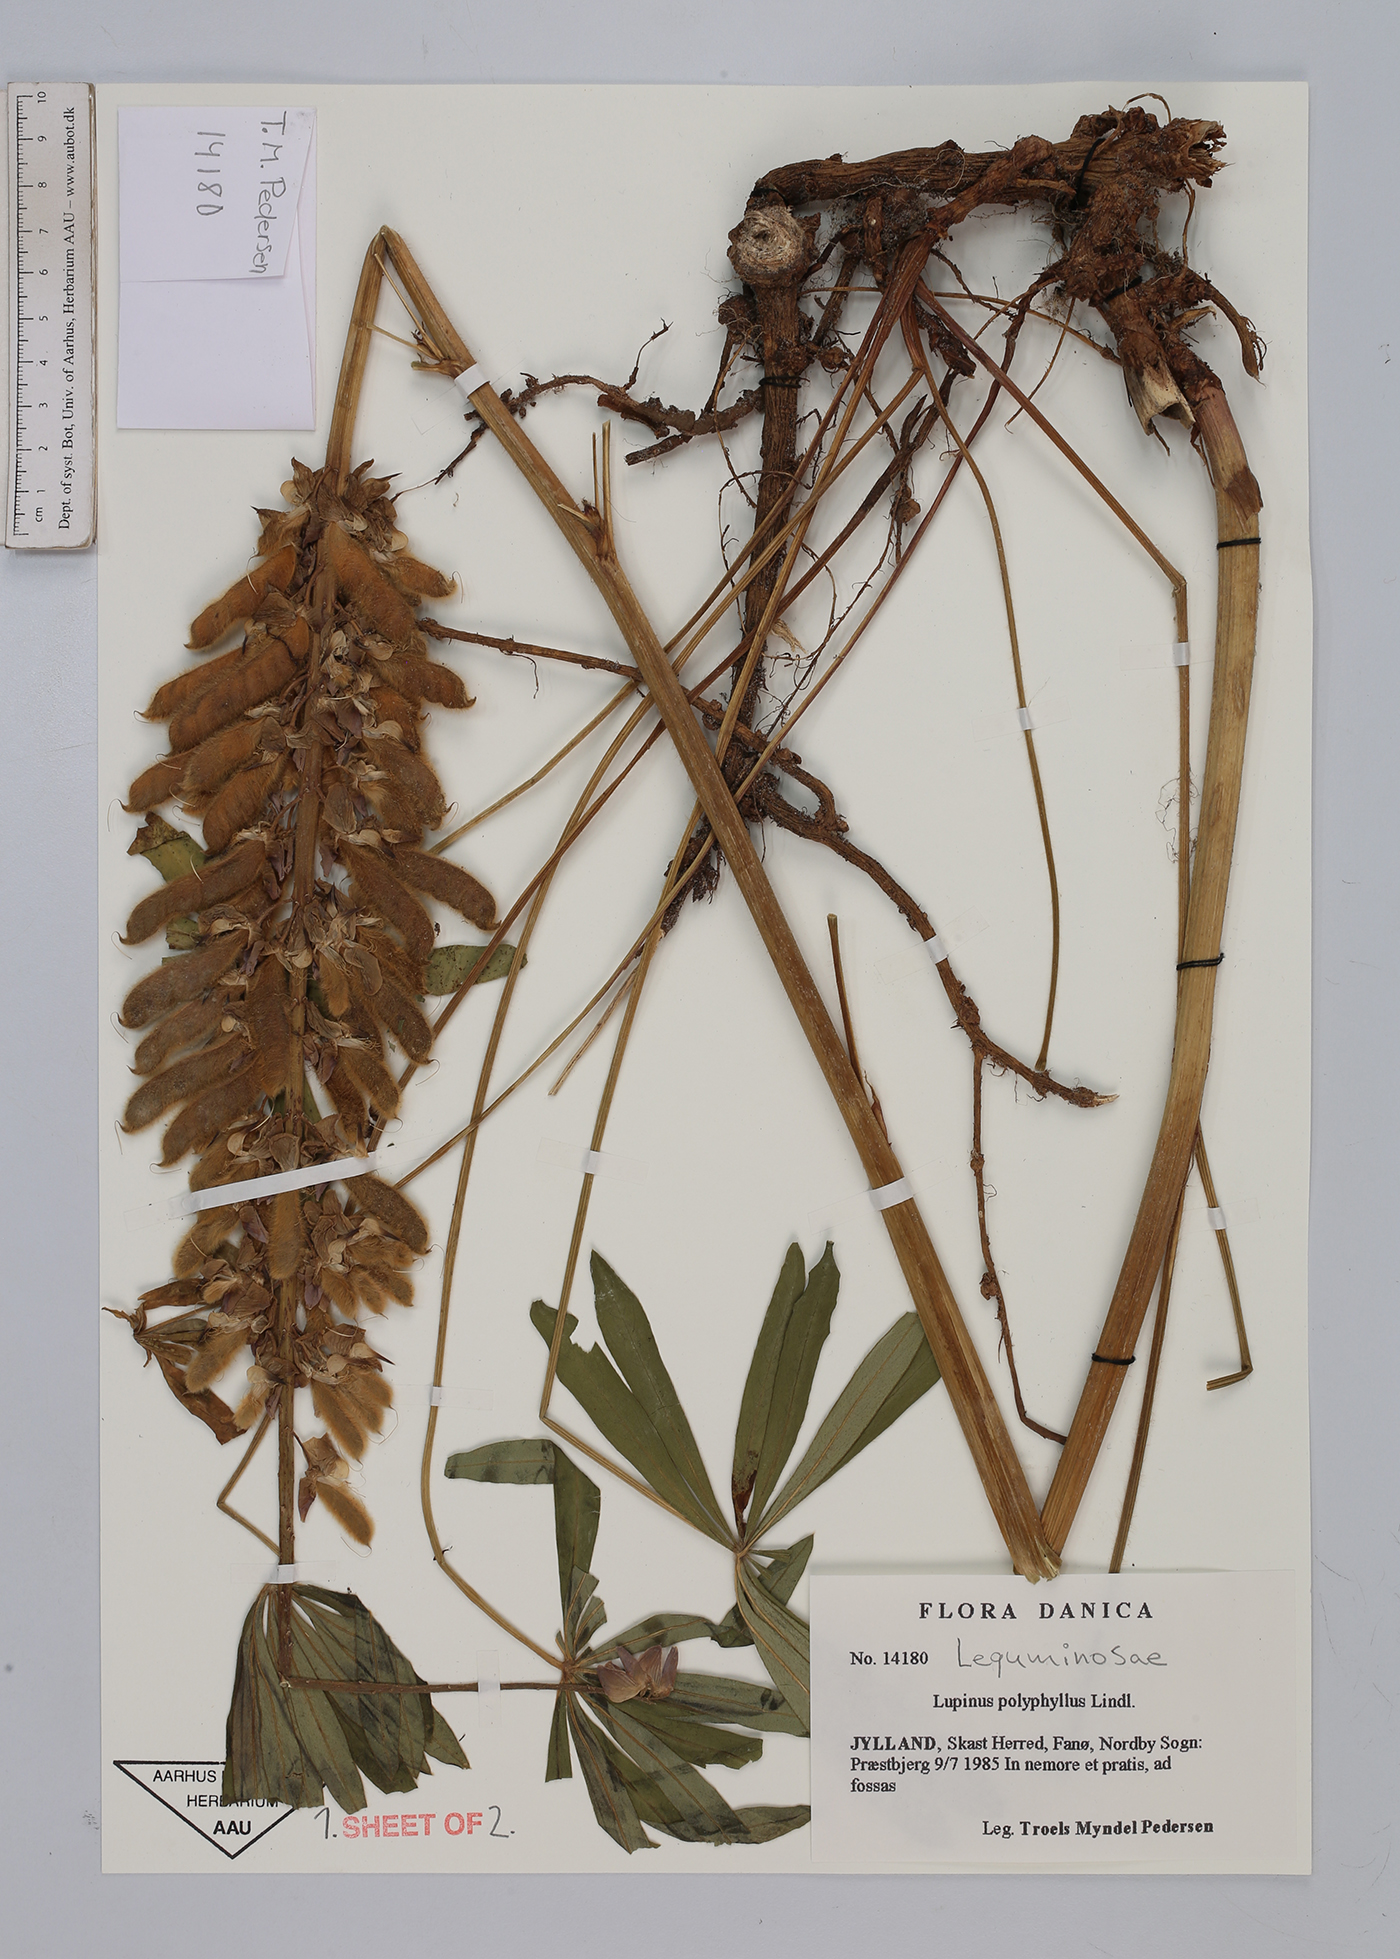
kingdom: Plantae
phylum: Tracheophyta
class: Magnoliopsida
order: Fabales
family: Fabaceae
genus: Lupinus
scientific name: Lupinus polyphyllus
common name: Garden lupin
